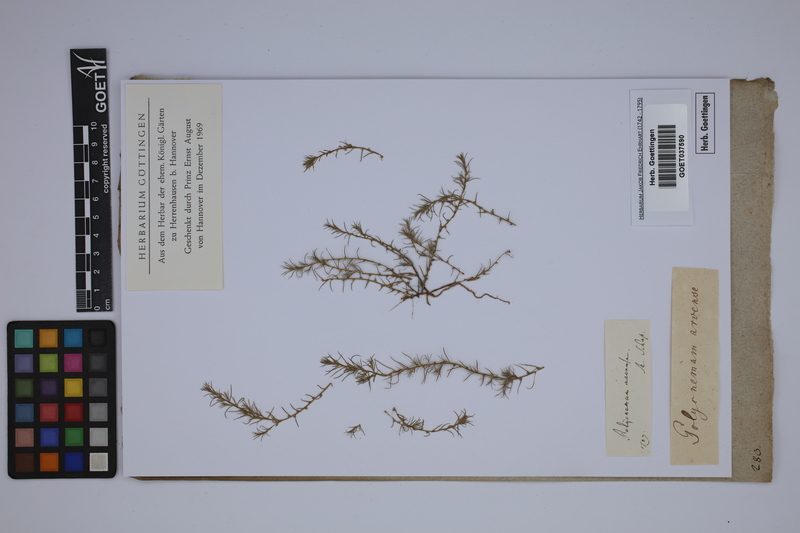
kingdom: Plantae
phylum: Tracheophyta
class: Magnoliopsida
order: Caryophyllales
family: Amaranthaceae
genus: Polycnemum
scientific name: Polycnemum arvense
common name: Soft needleleaf
